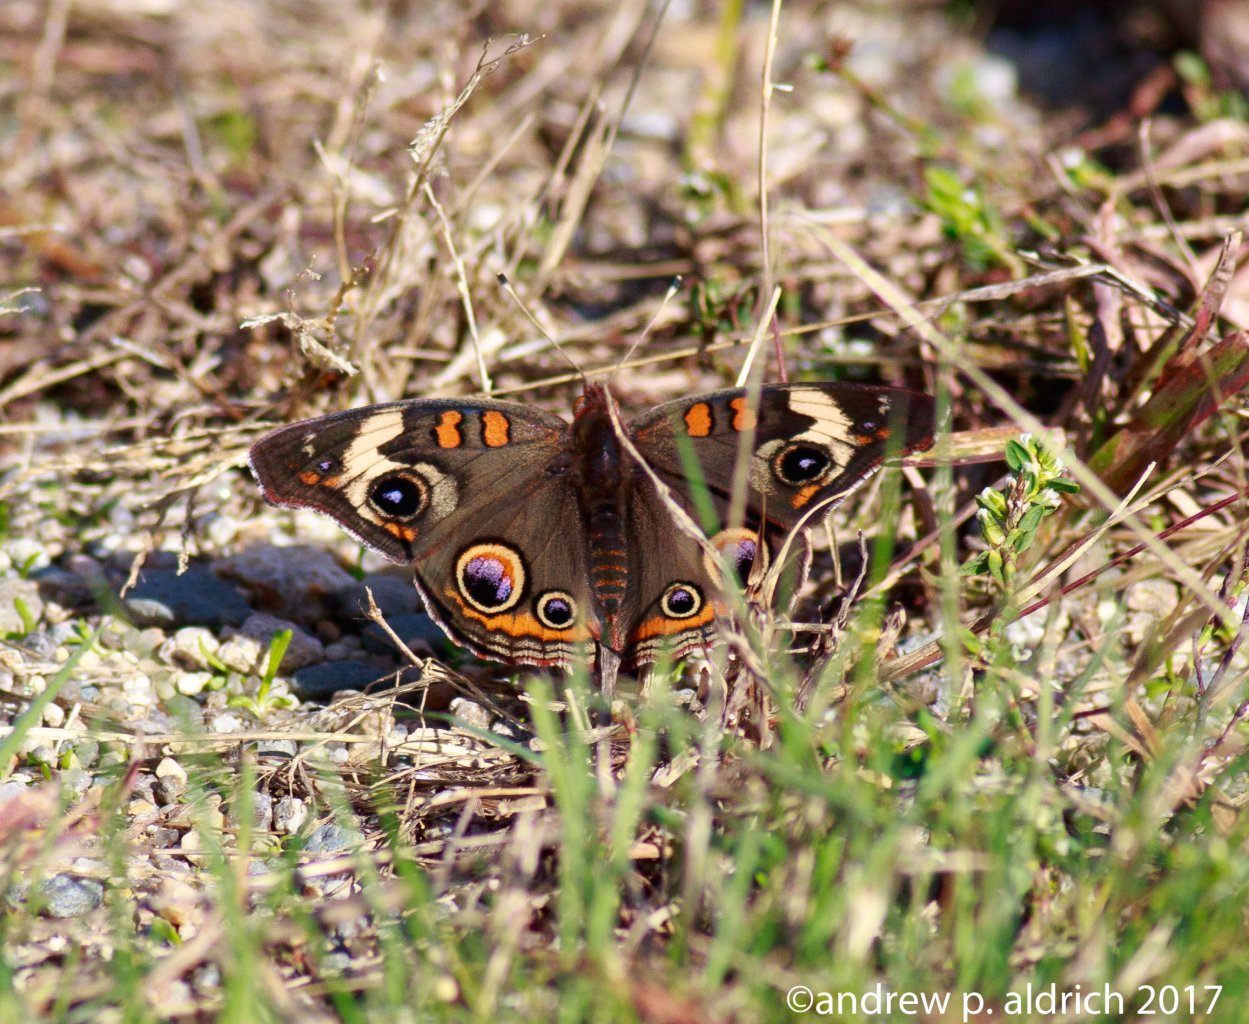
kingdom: Animalia
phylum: Arthropoda
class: Insecta
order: Lepidoptera
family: Nymphalidae
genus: Junonia
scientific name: Junonia coenia
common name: Common Buckeye
